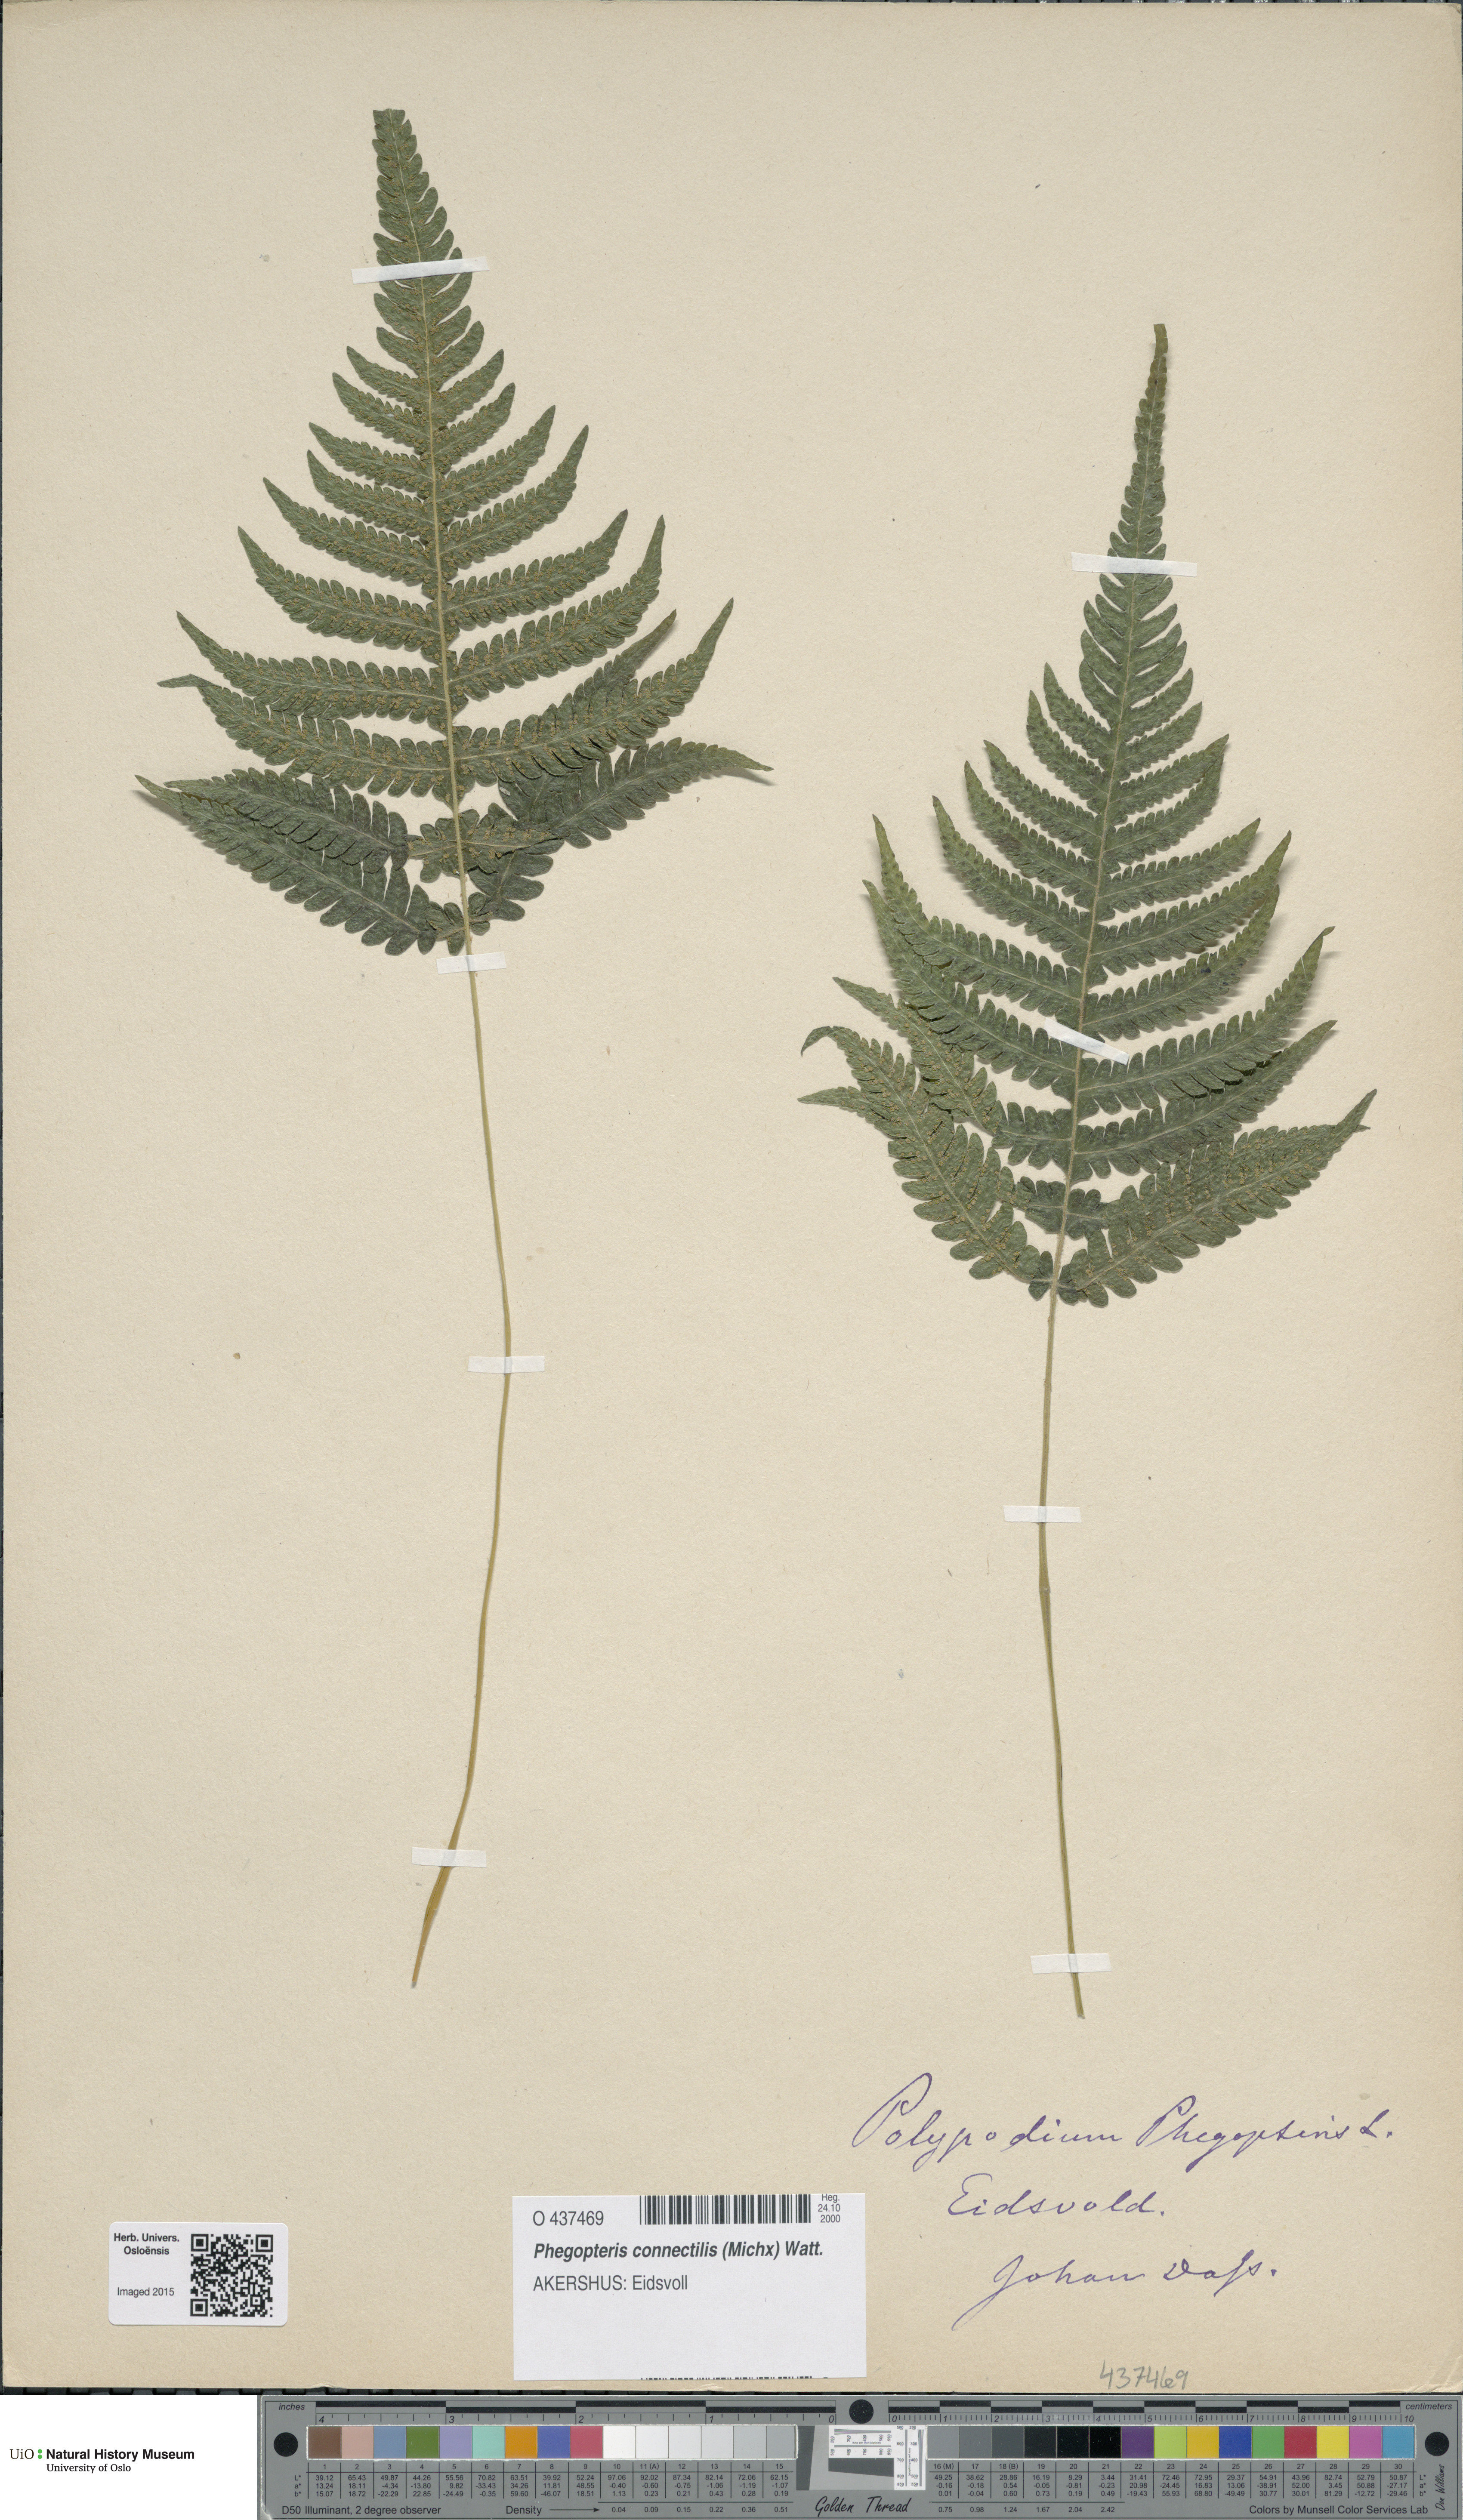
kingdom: Plantae
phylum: Tracheophyta
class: Polypodiopsida
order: Polypodiales
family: Thelypteridaceae
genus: Phegopteris
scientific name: Phegopteris connectilis
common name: Beech fern
